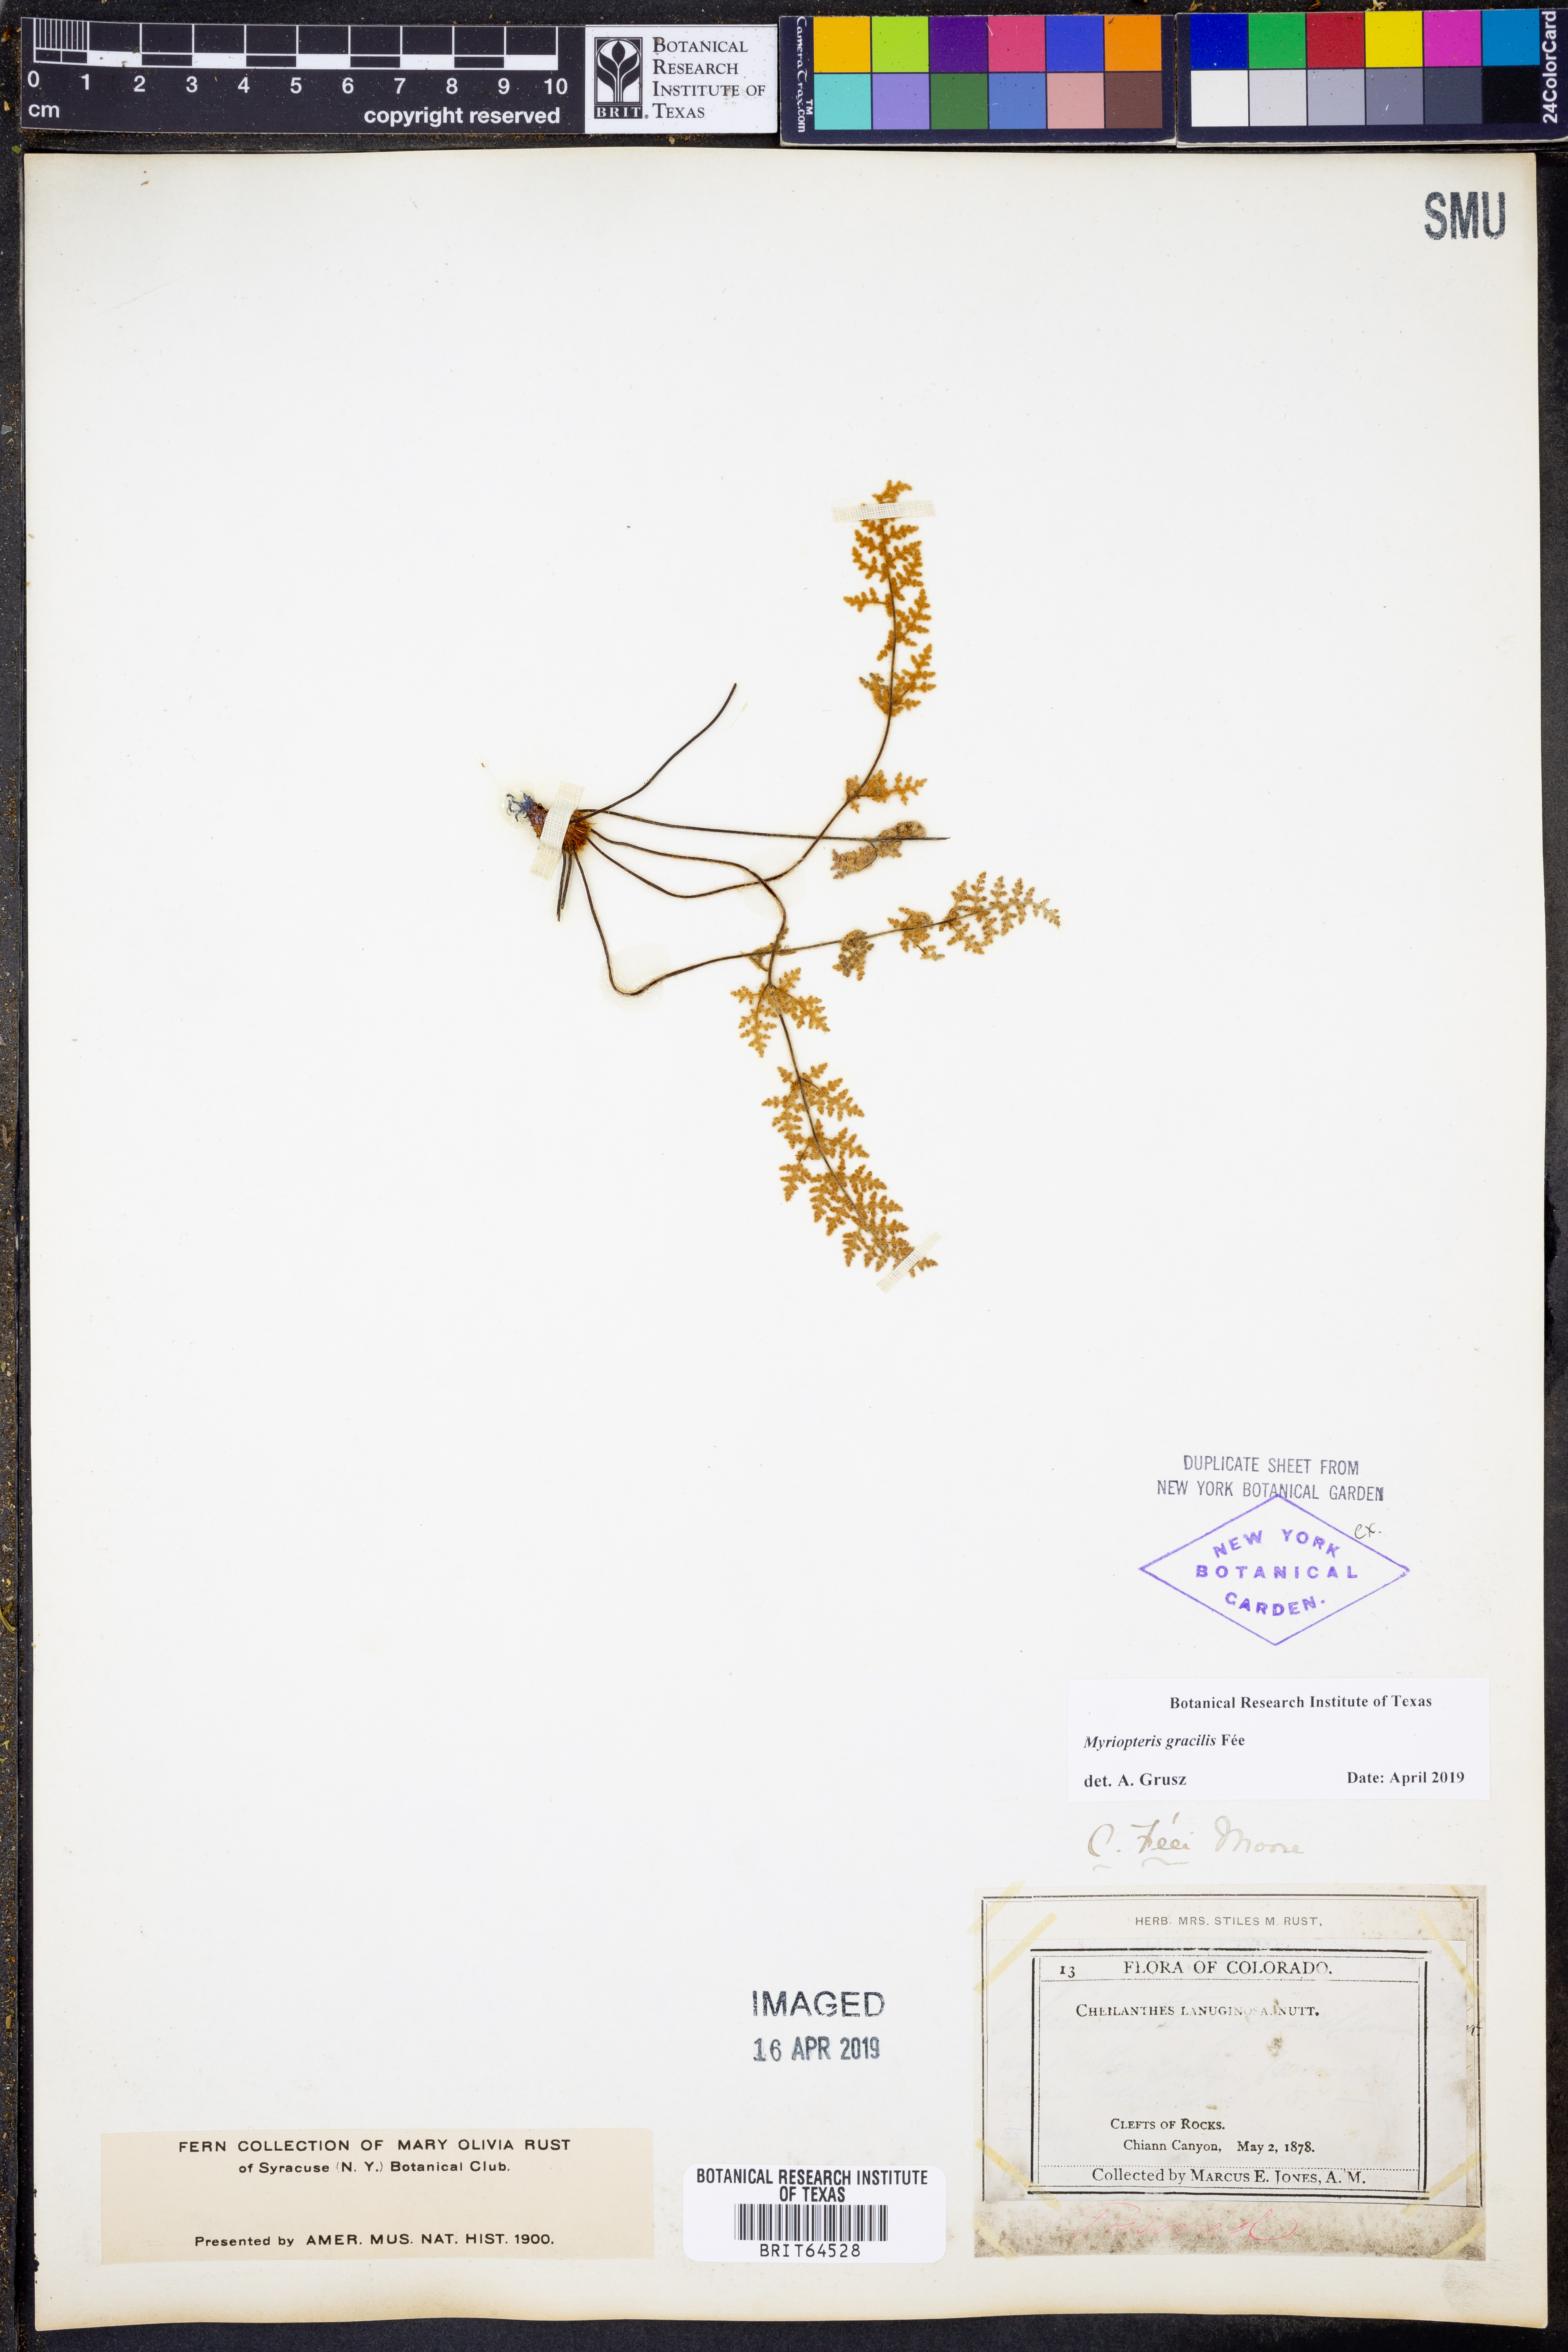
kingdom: Plantae
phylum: Tracheophyta
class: Polypodiopsida
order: Polypodiales
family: Pteridaceae
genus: Myriopteris
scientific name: Myriopteris gracilis
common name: Fee's lip fern
